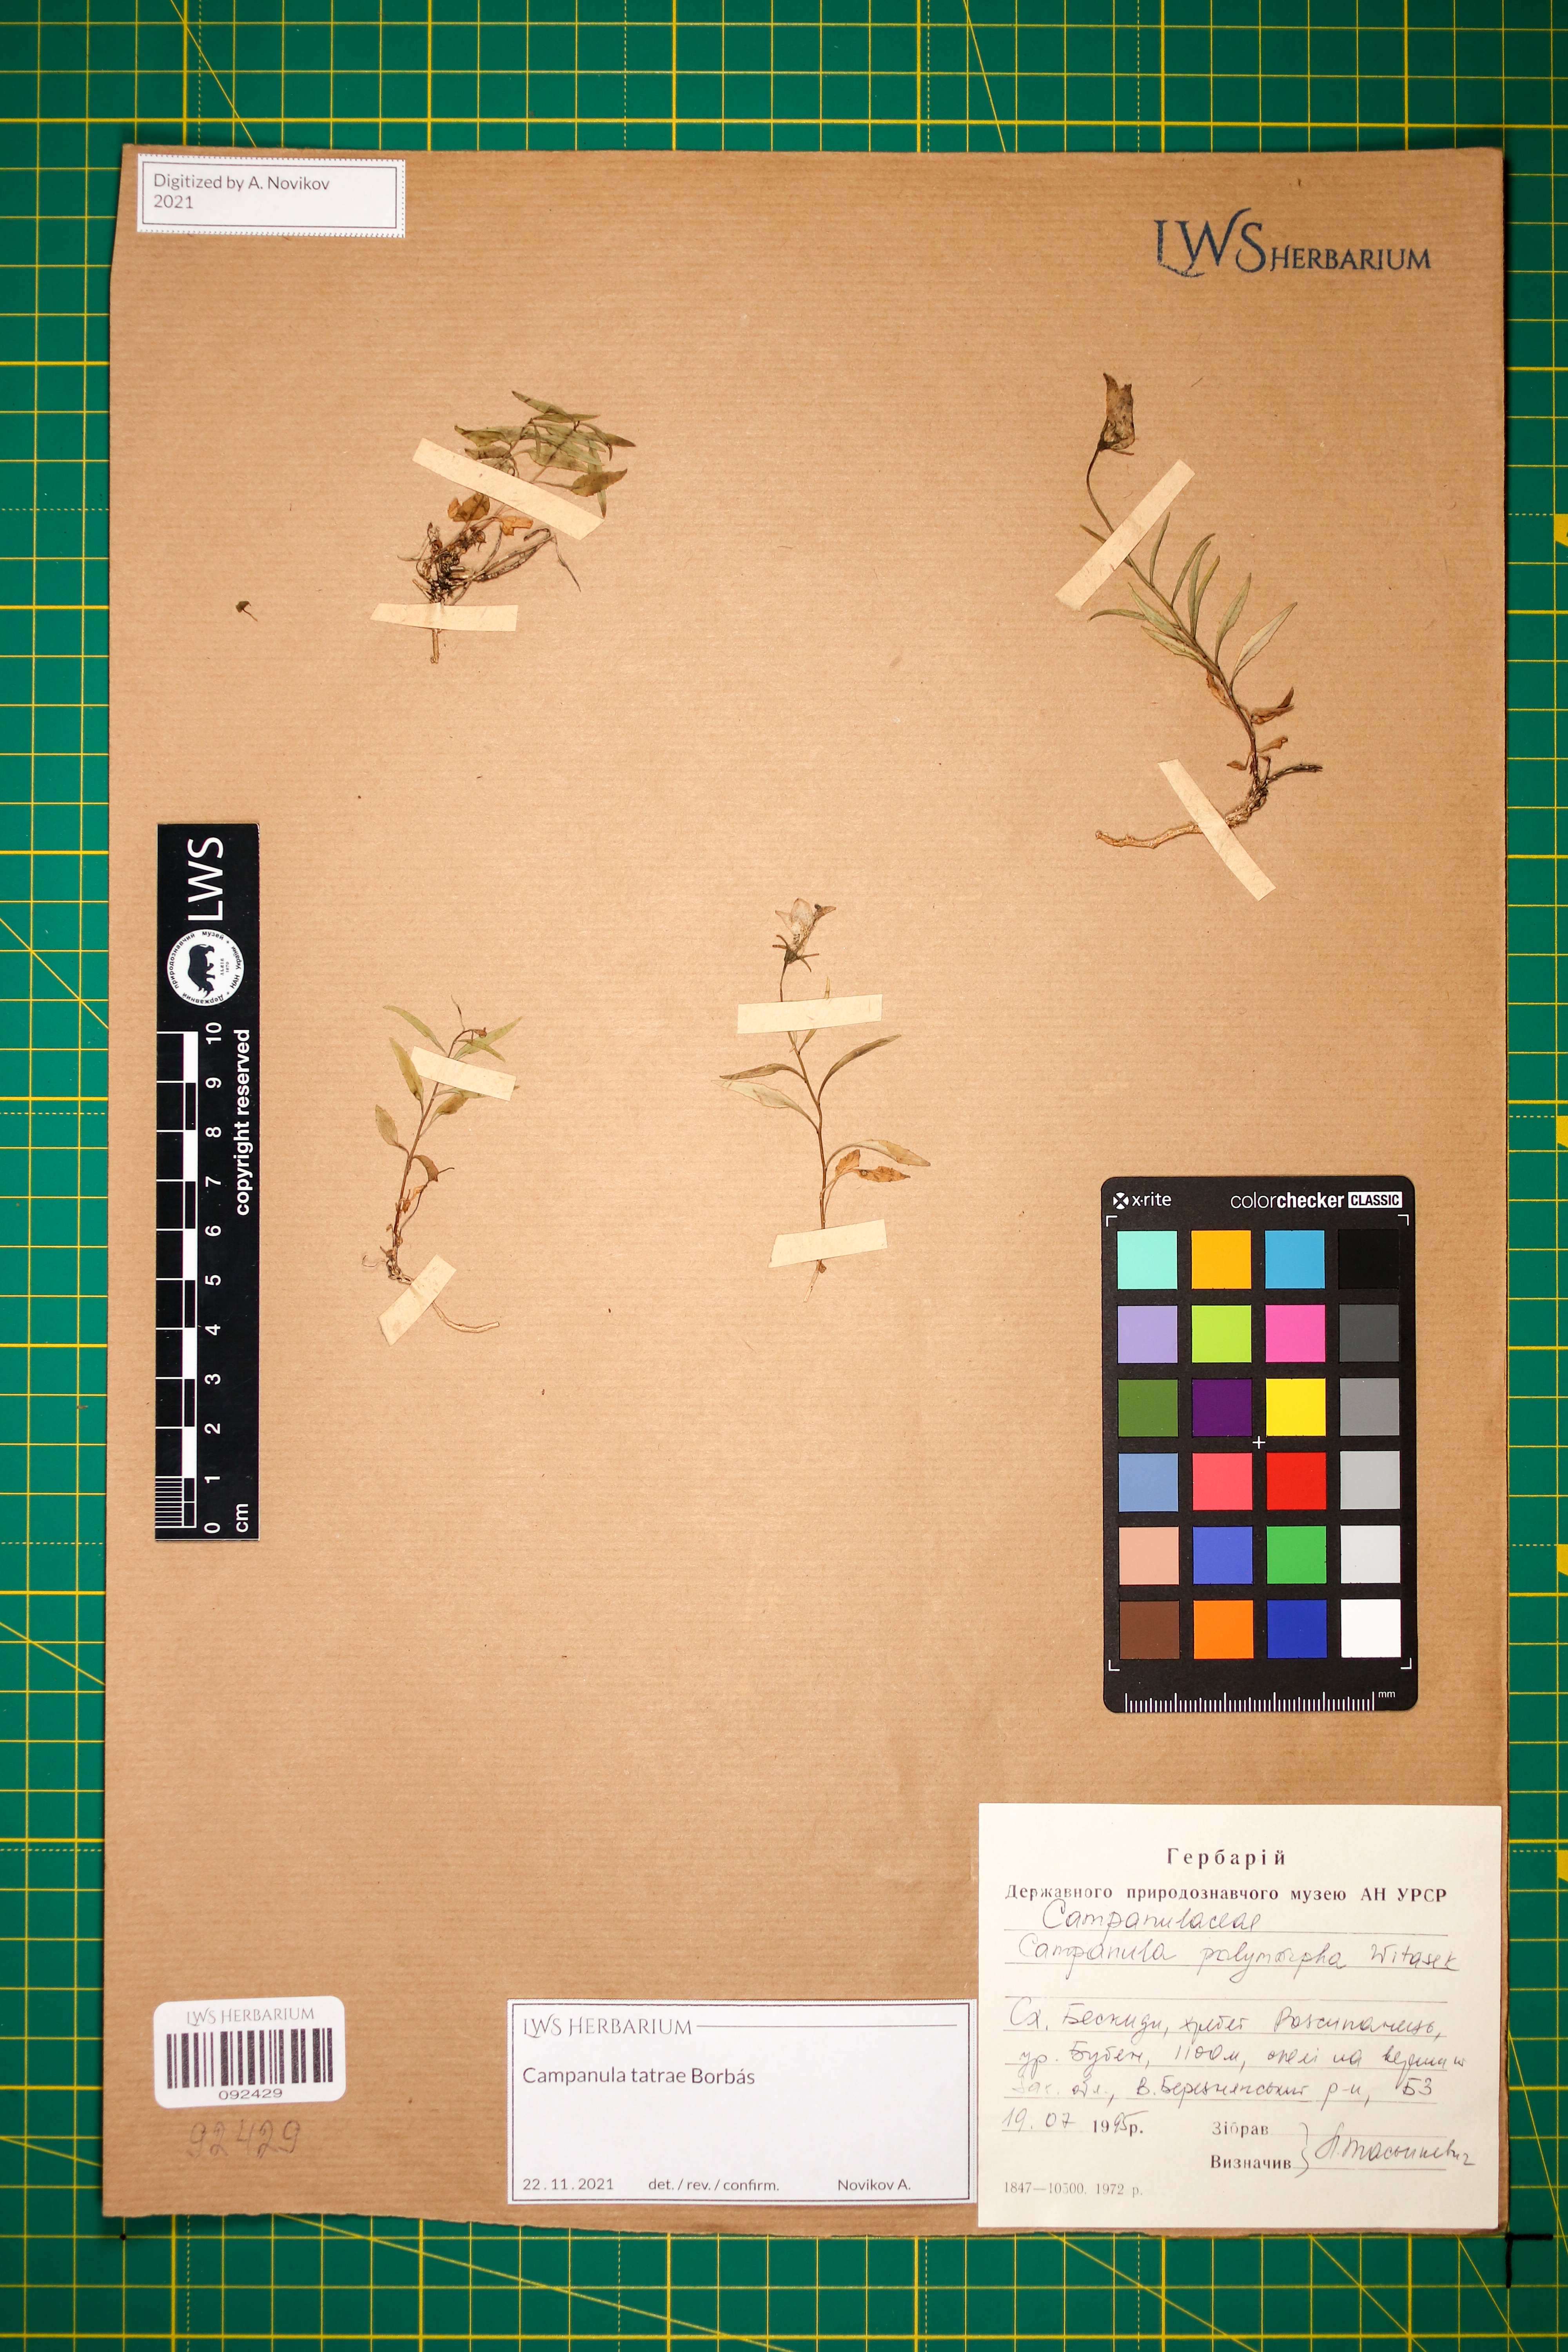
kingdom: Plantae
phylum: Tracheophyta
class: Magnoliopsida
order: Asterales
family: Campanulaceae
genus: Campanula
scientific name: Campanula tatrae
